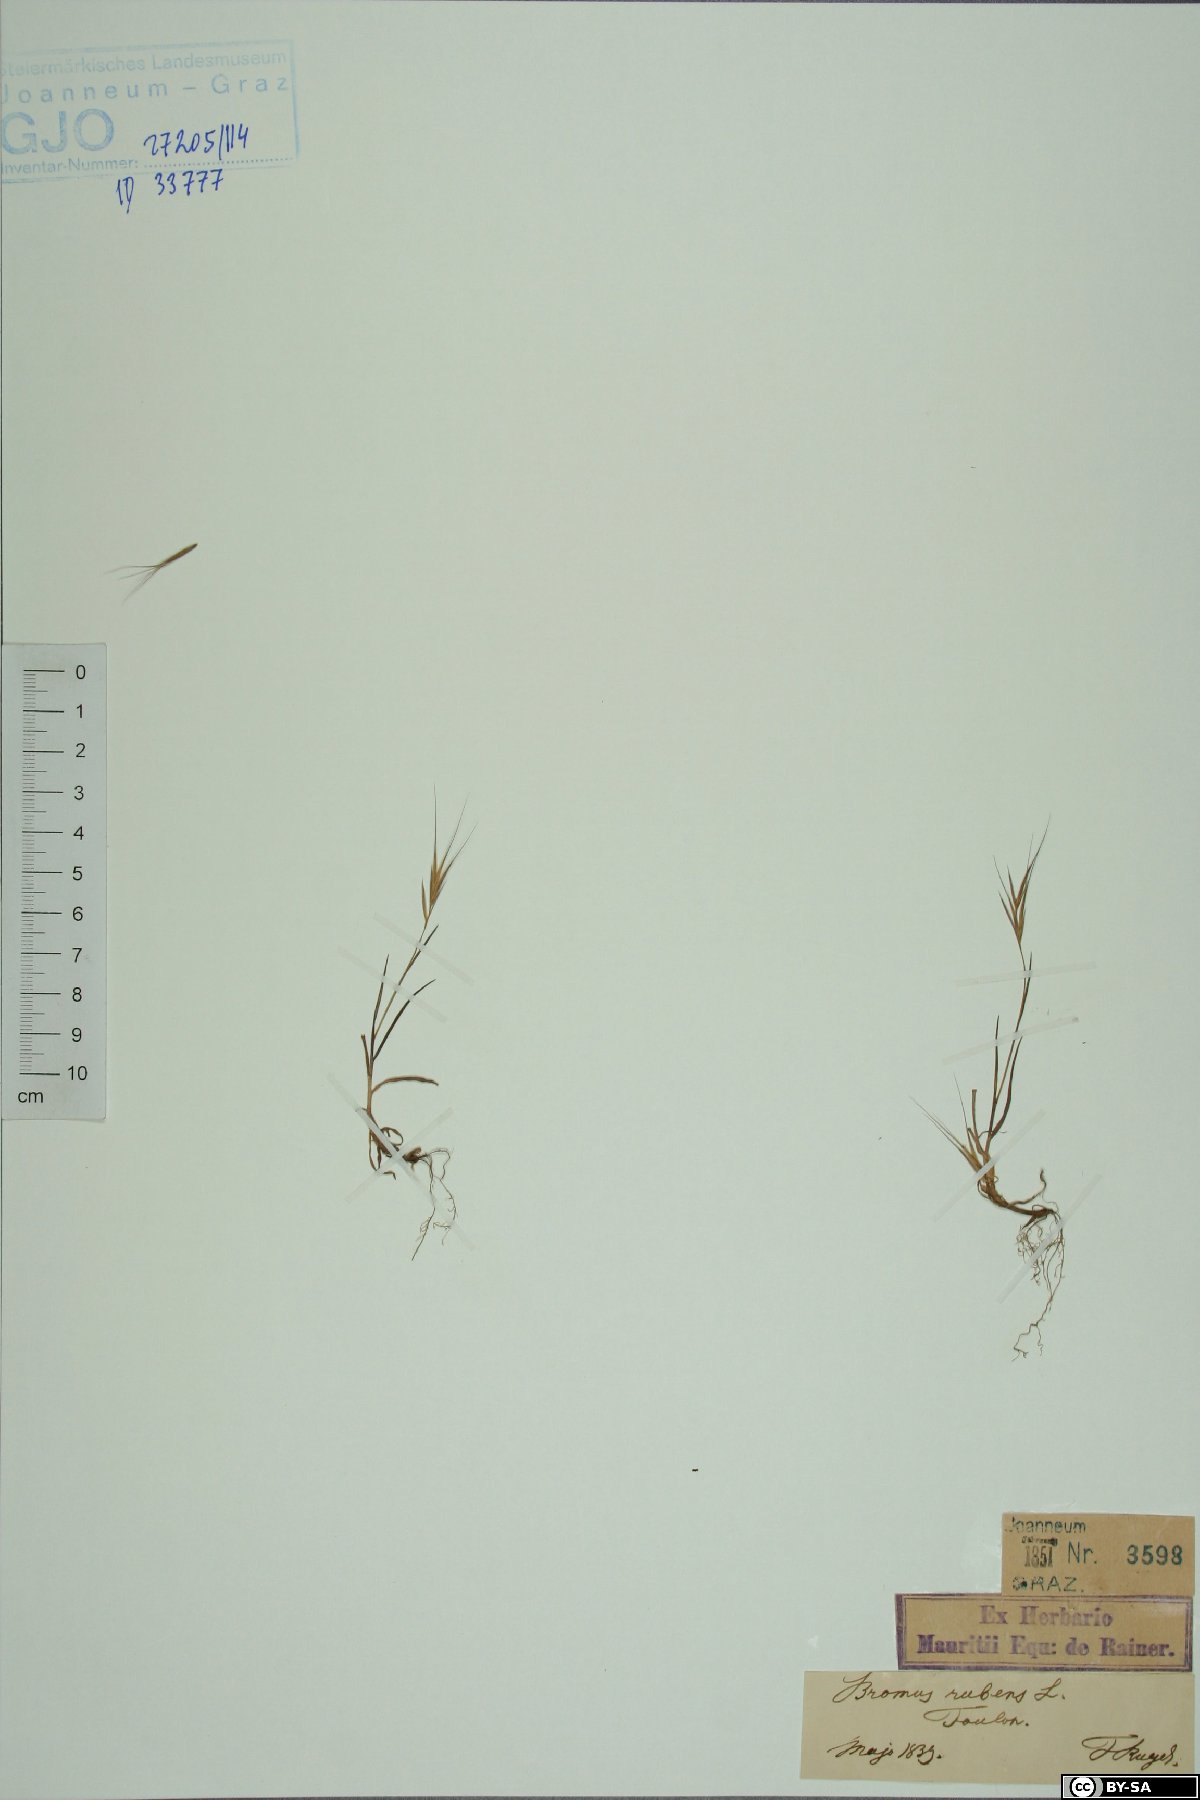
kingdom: Plantae
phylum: Tracheophyta
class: Liliopsida
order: Poales
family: Poaceae
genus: Bromus
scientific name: Bromus rubens
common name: Red brome
